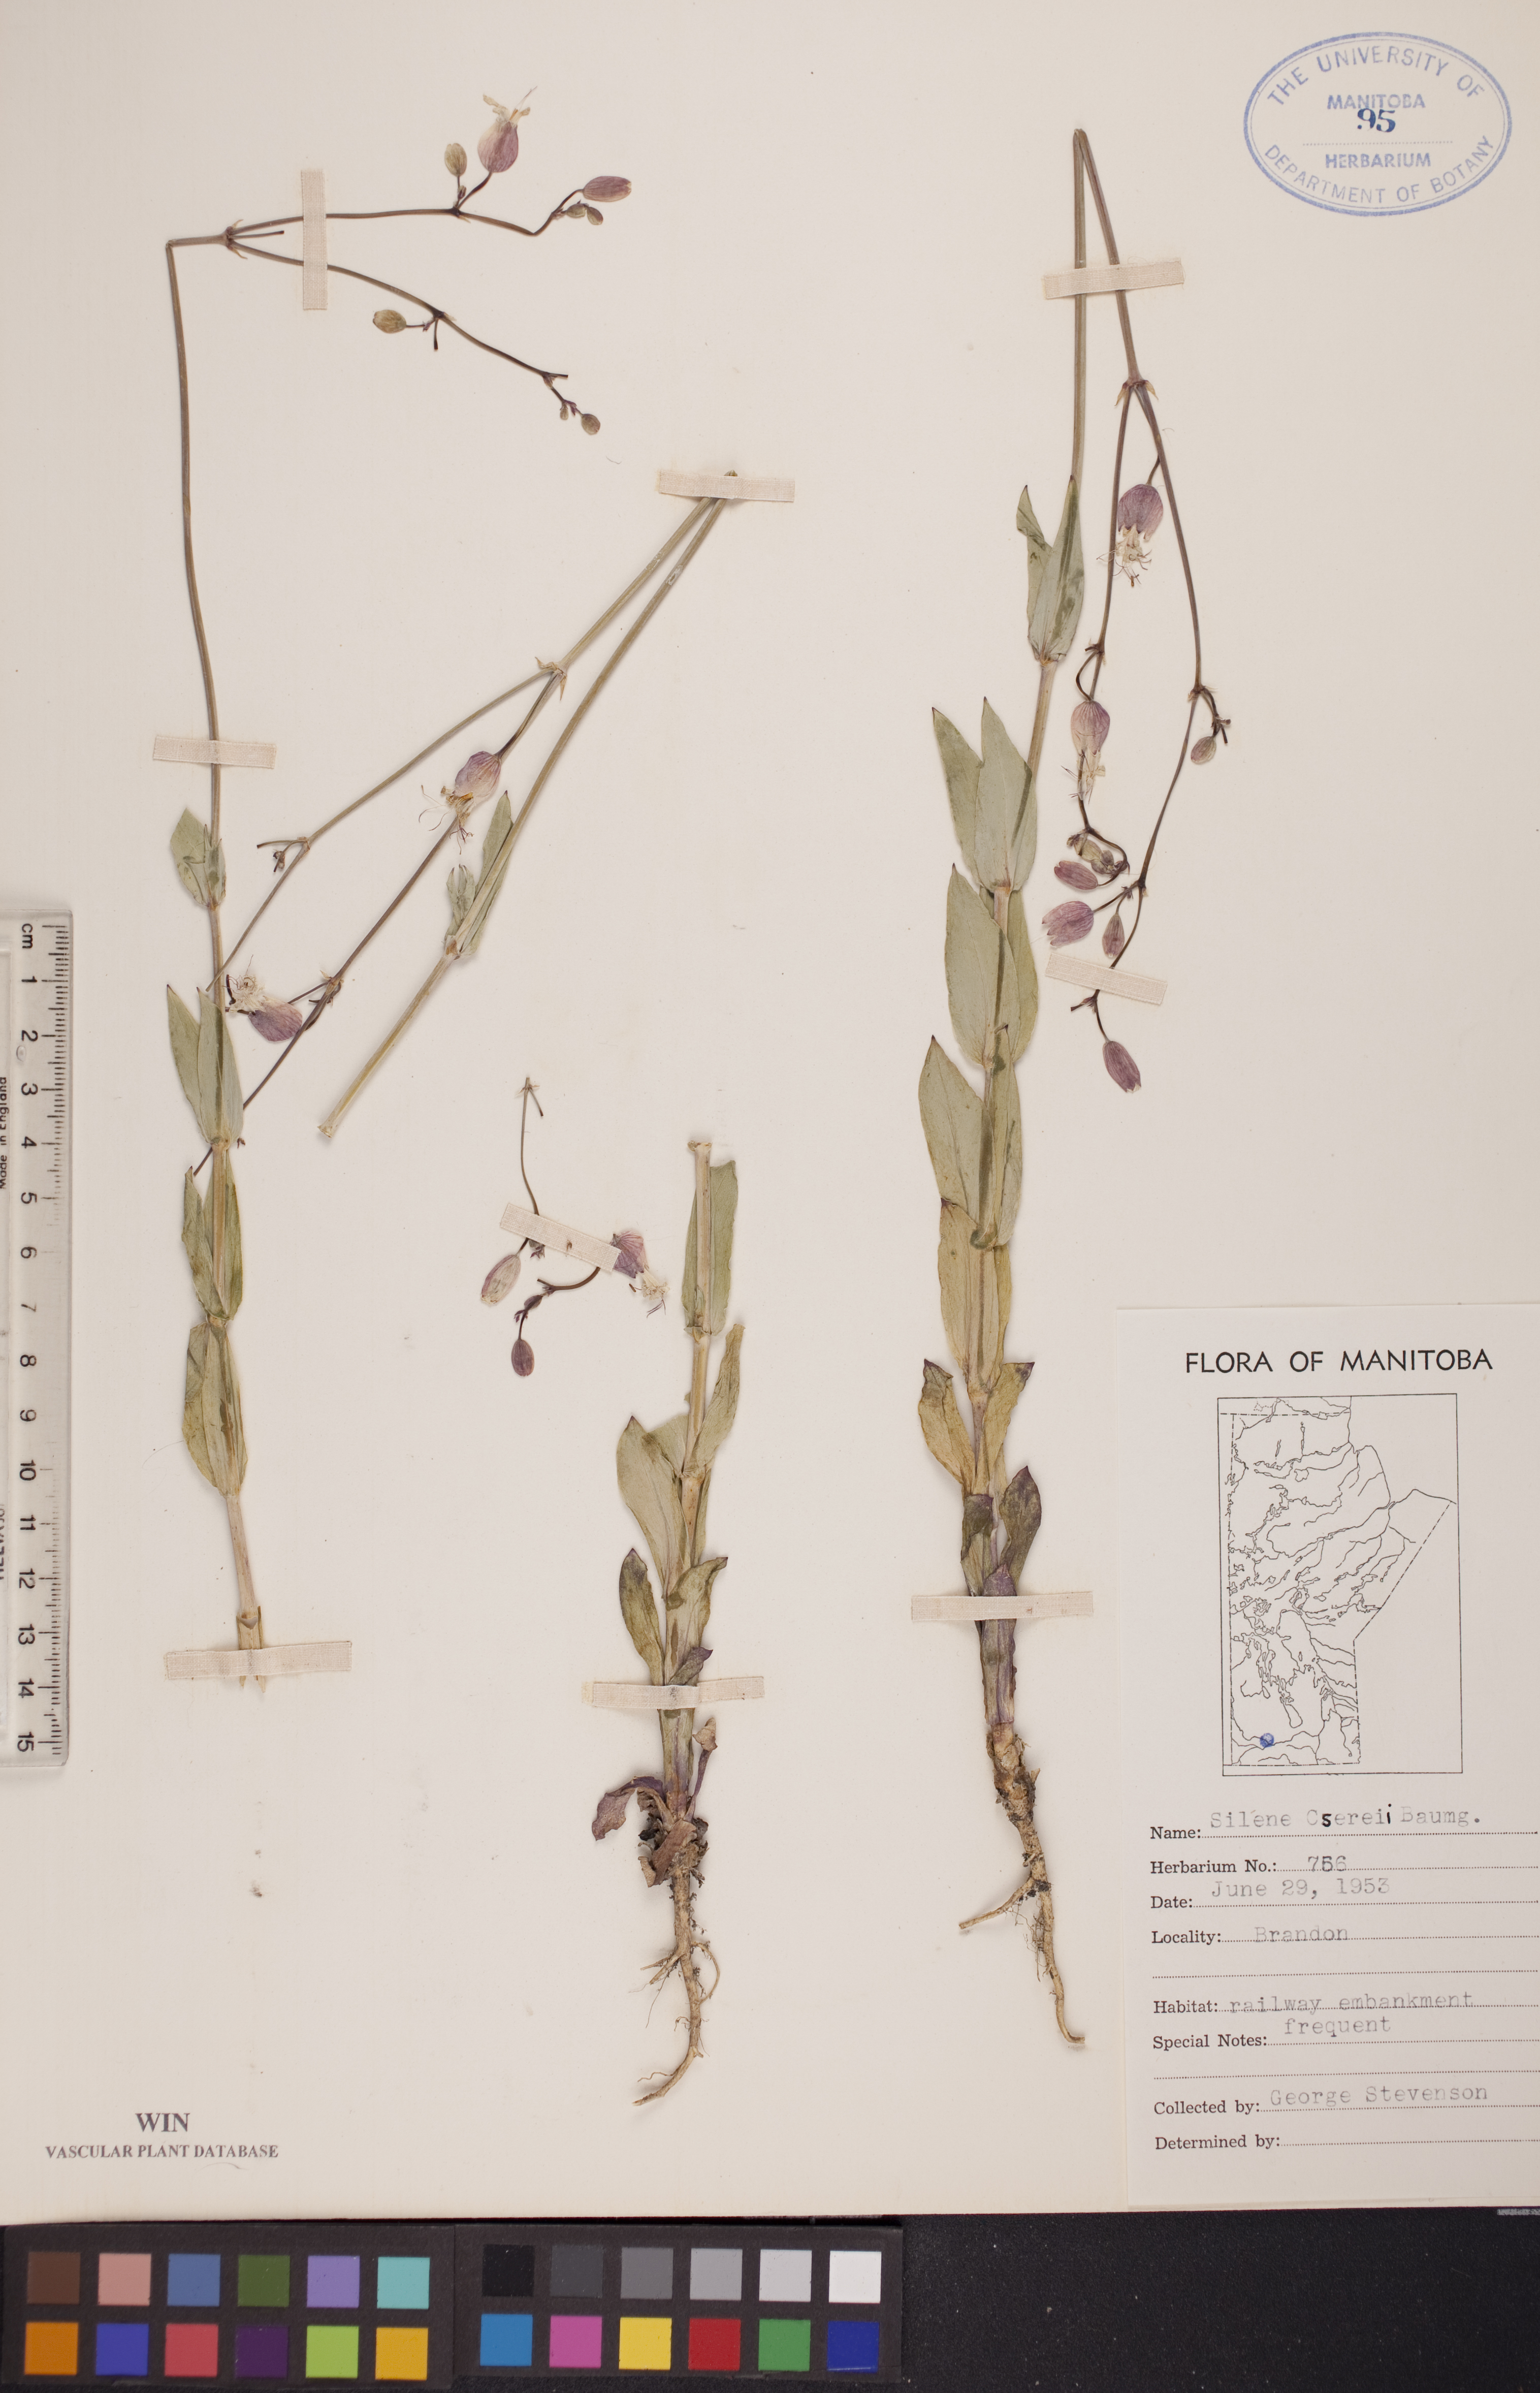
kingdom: Plantae
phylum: Tracheophyta
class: Magnoliopsida
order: Caryophyllales
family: Caryophyllaceae
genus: Silene
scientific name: Silene csereii
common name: Balkan catchfly
